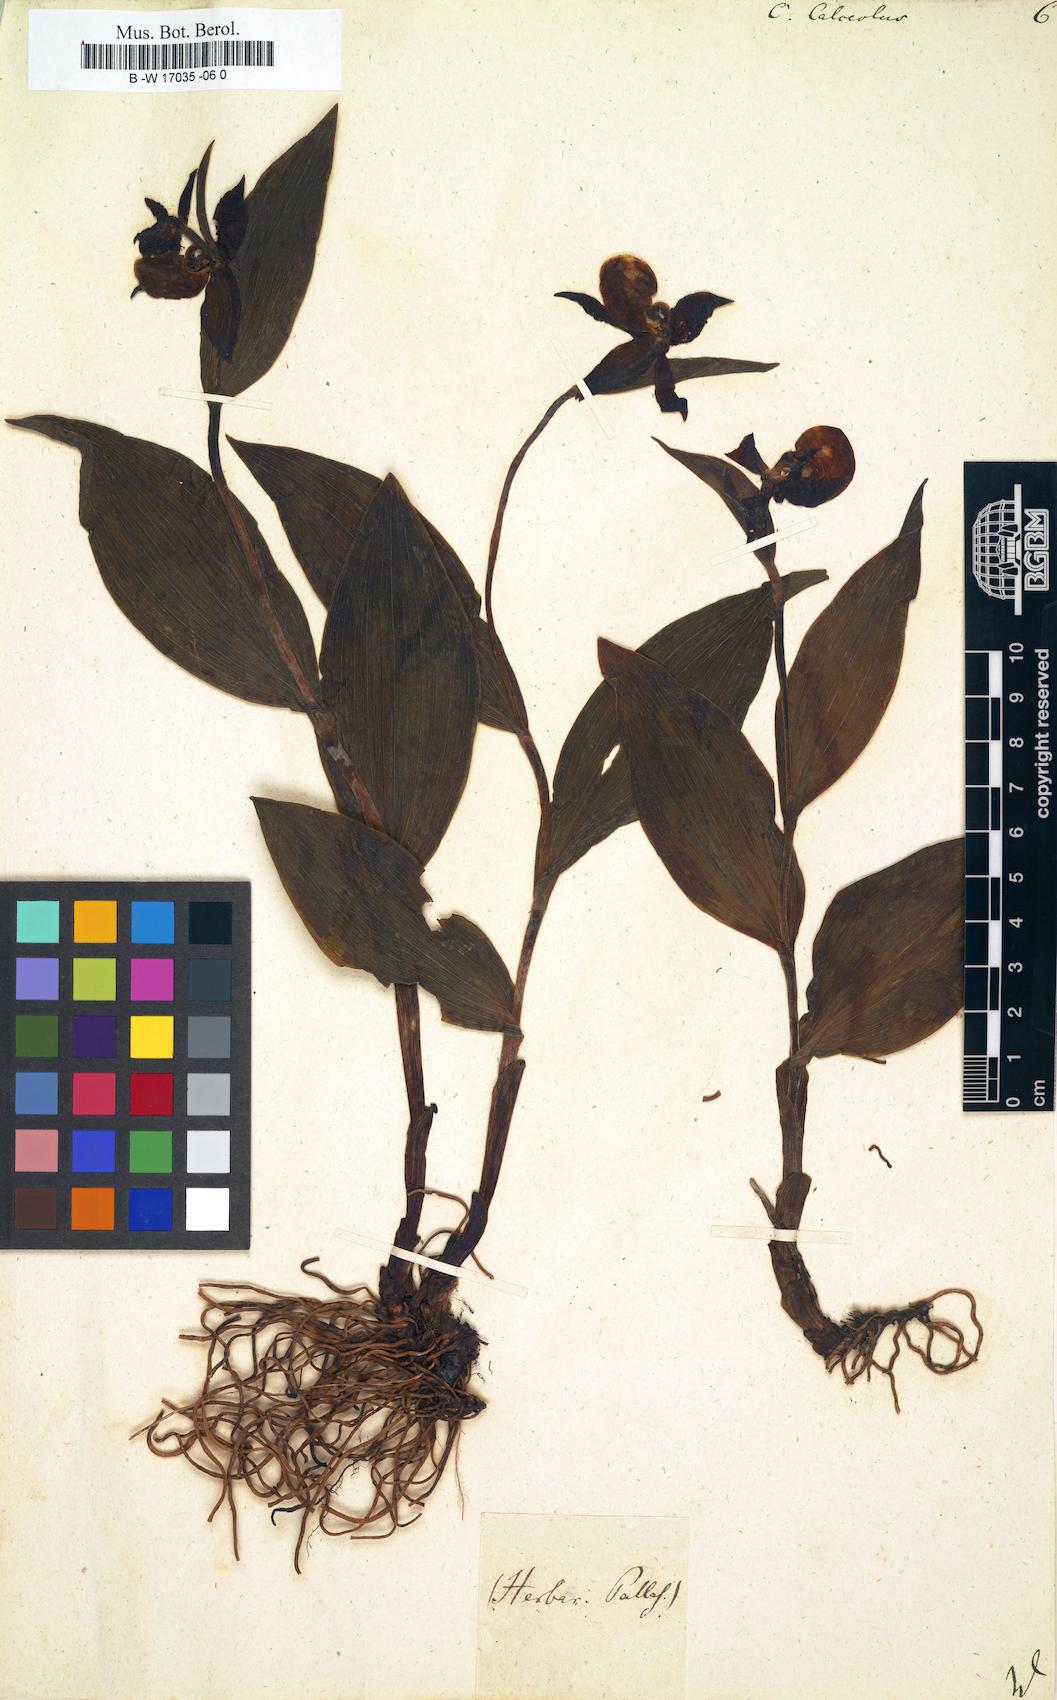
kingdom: Plantae
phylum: Tracheophyta
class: Liliopsida
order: Asparagales
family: Orchidaceae
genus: Cypripedium
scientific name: Cypripedium calceolus
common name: Lady's-slipper
